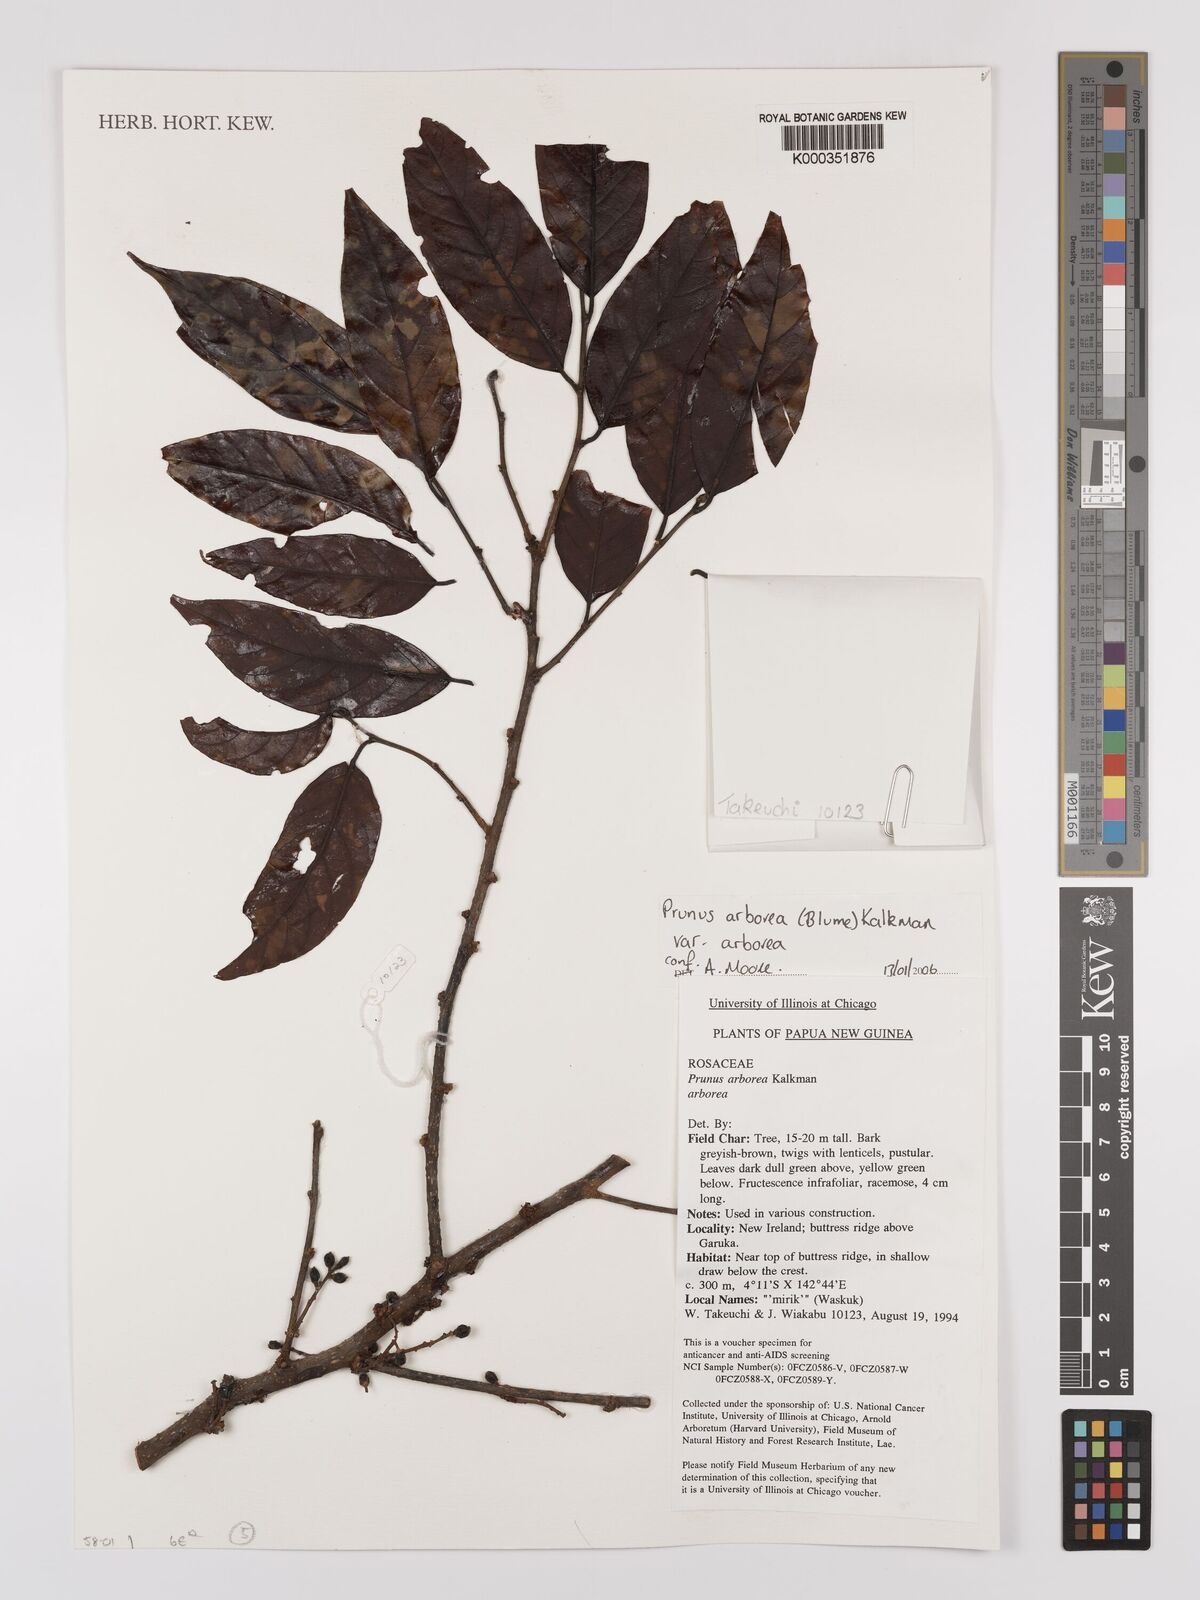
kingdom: Plantae
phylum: Tracheophyta
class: Magnoliopsida
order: Rosales
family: Rosaceae
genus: Prunus
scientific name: Prunus arborea
